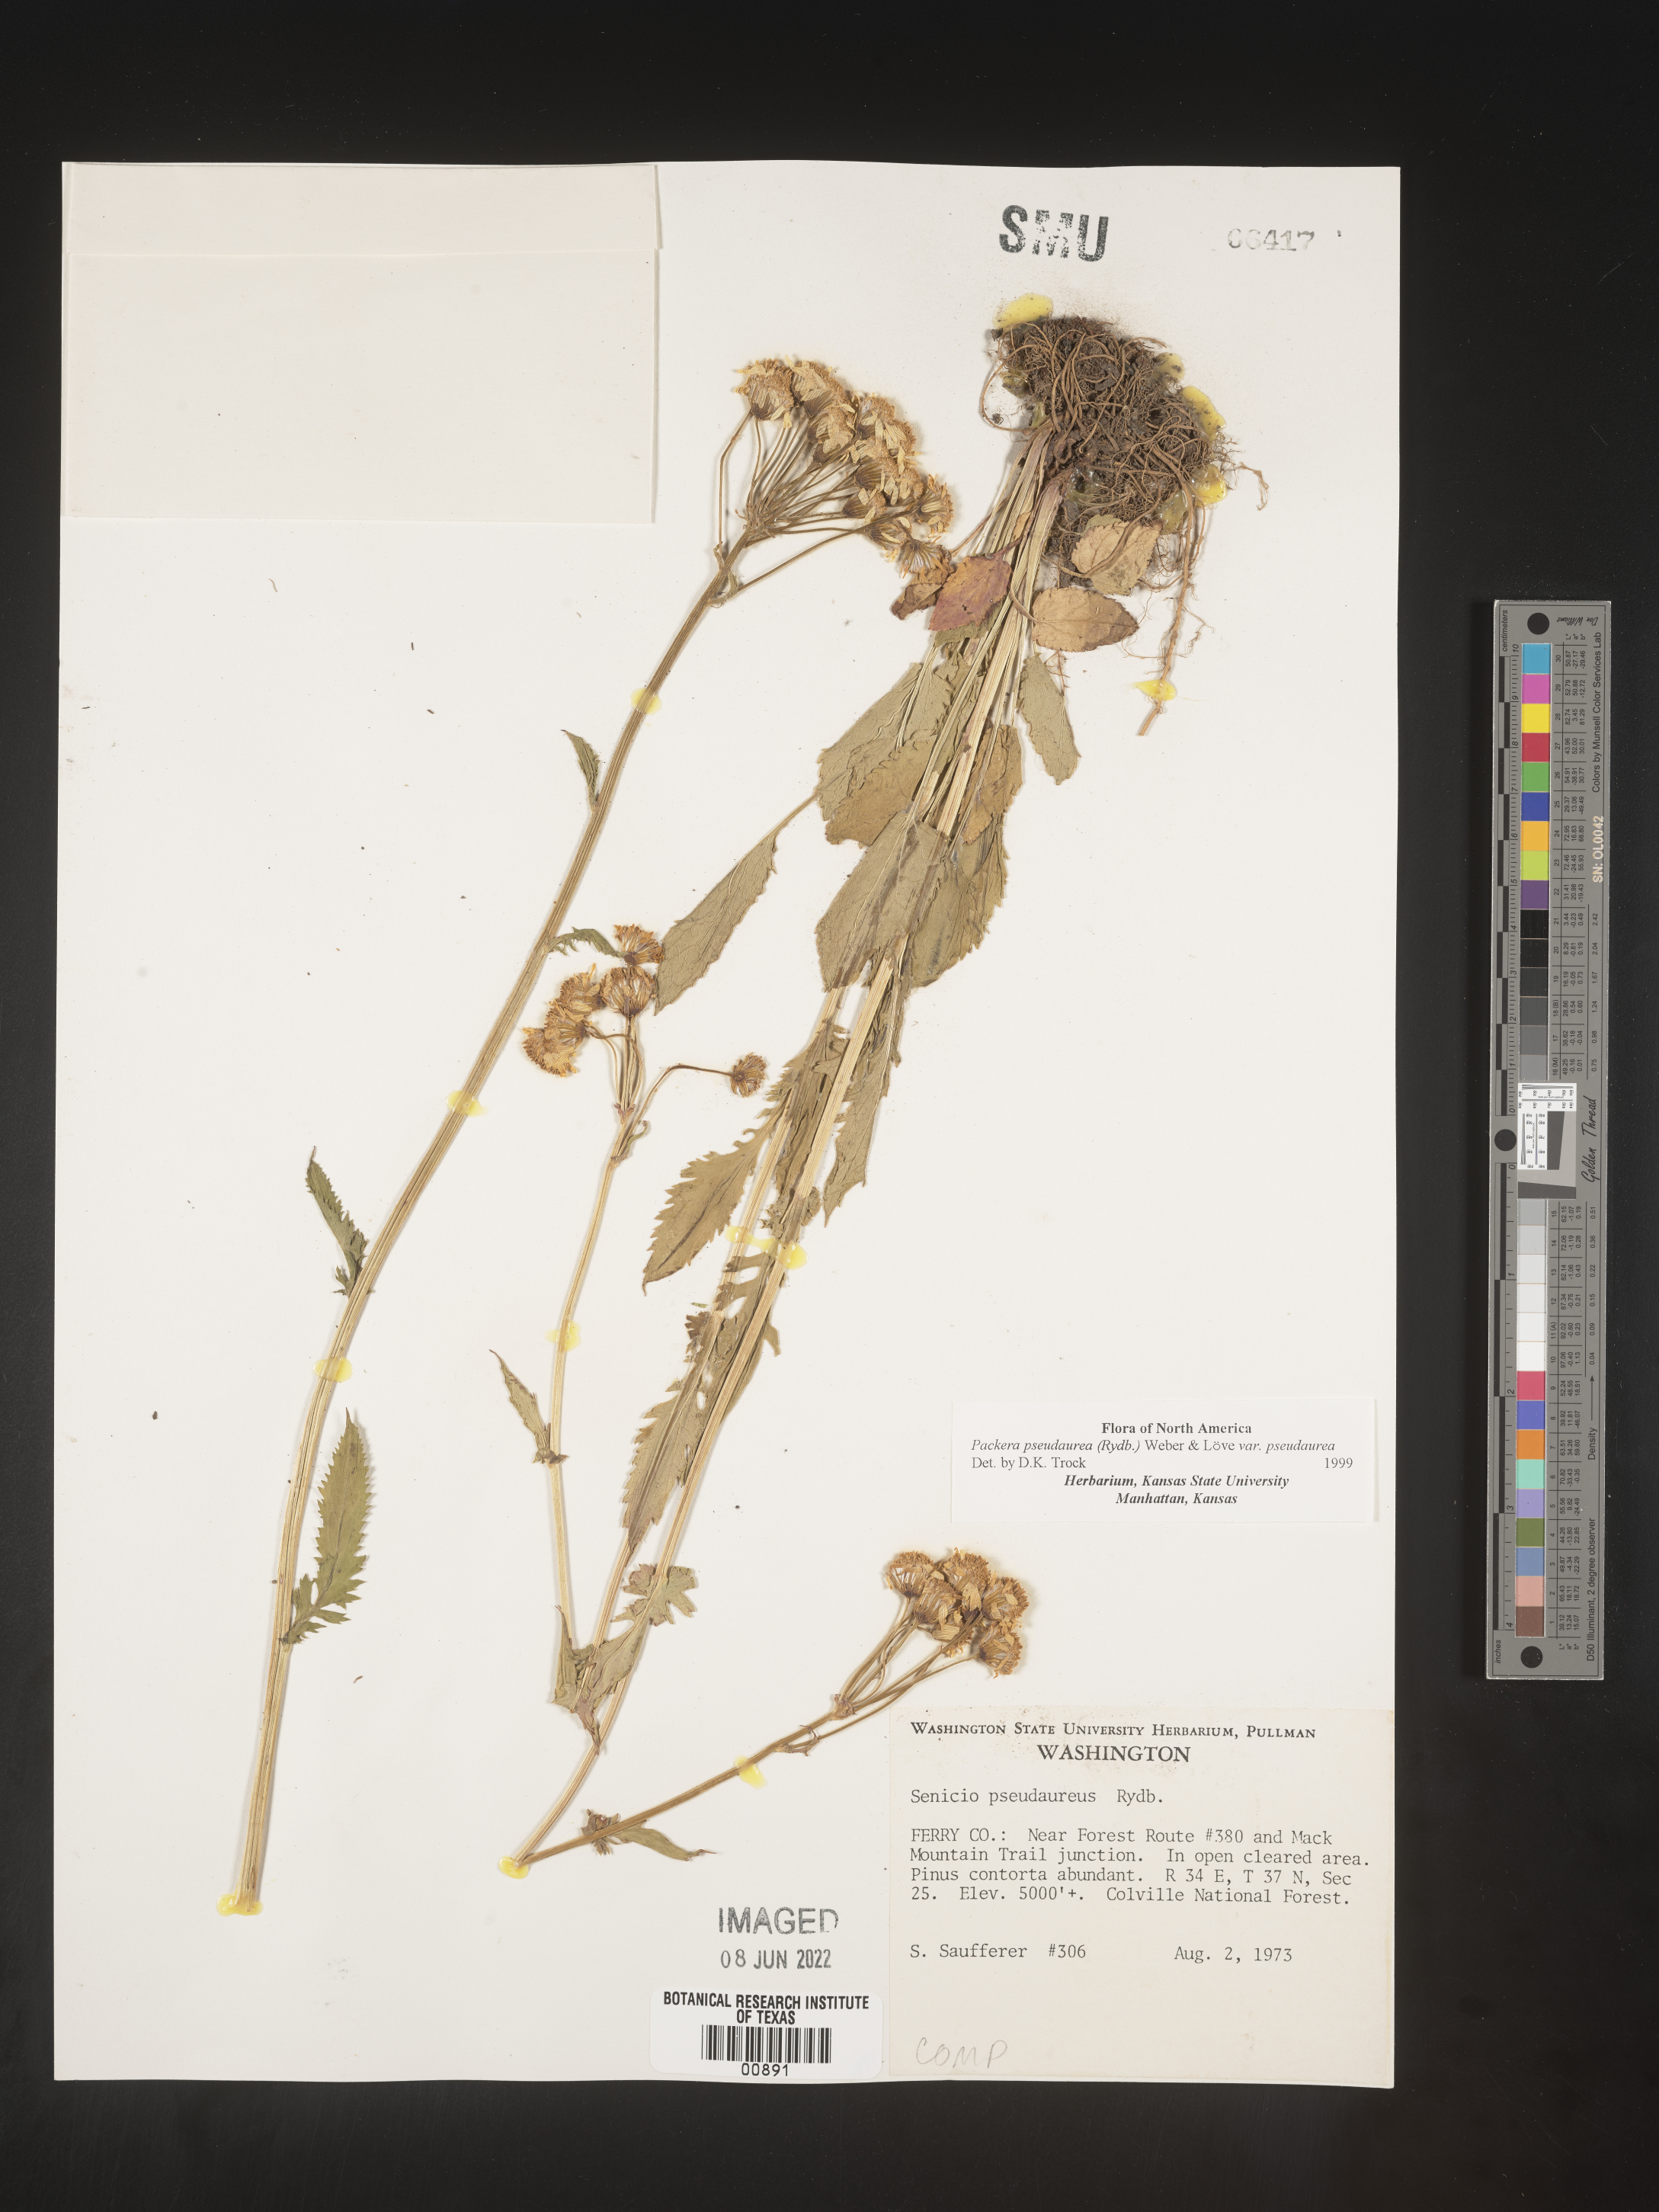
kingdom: Plantae
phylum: Tracheophyta
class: Magnoliopsida
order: Asterales
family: Asteraceae
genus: Packera
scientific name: Packera pseudaurea
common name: False-gold groundsel
